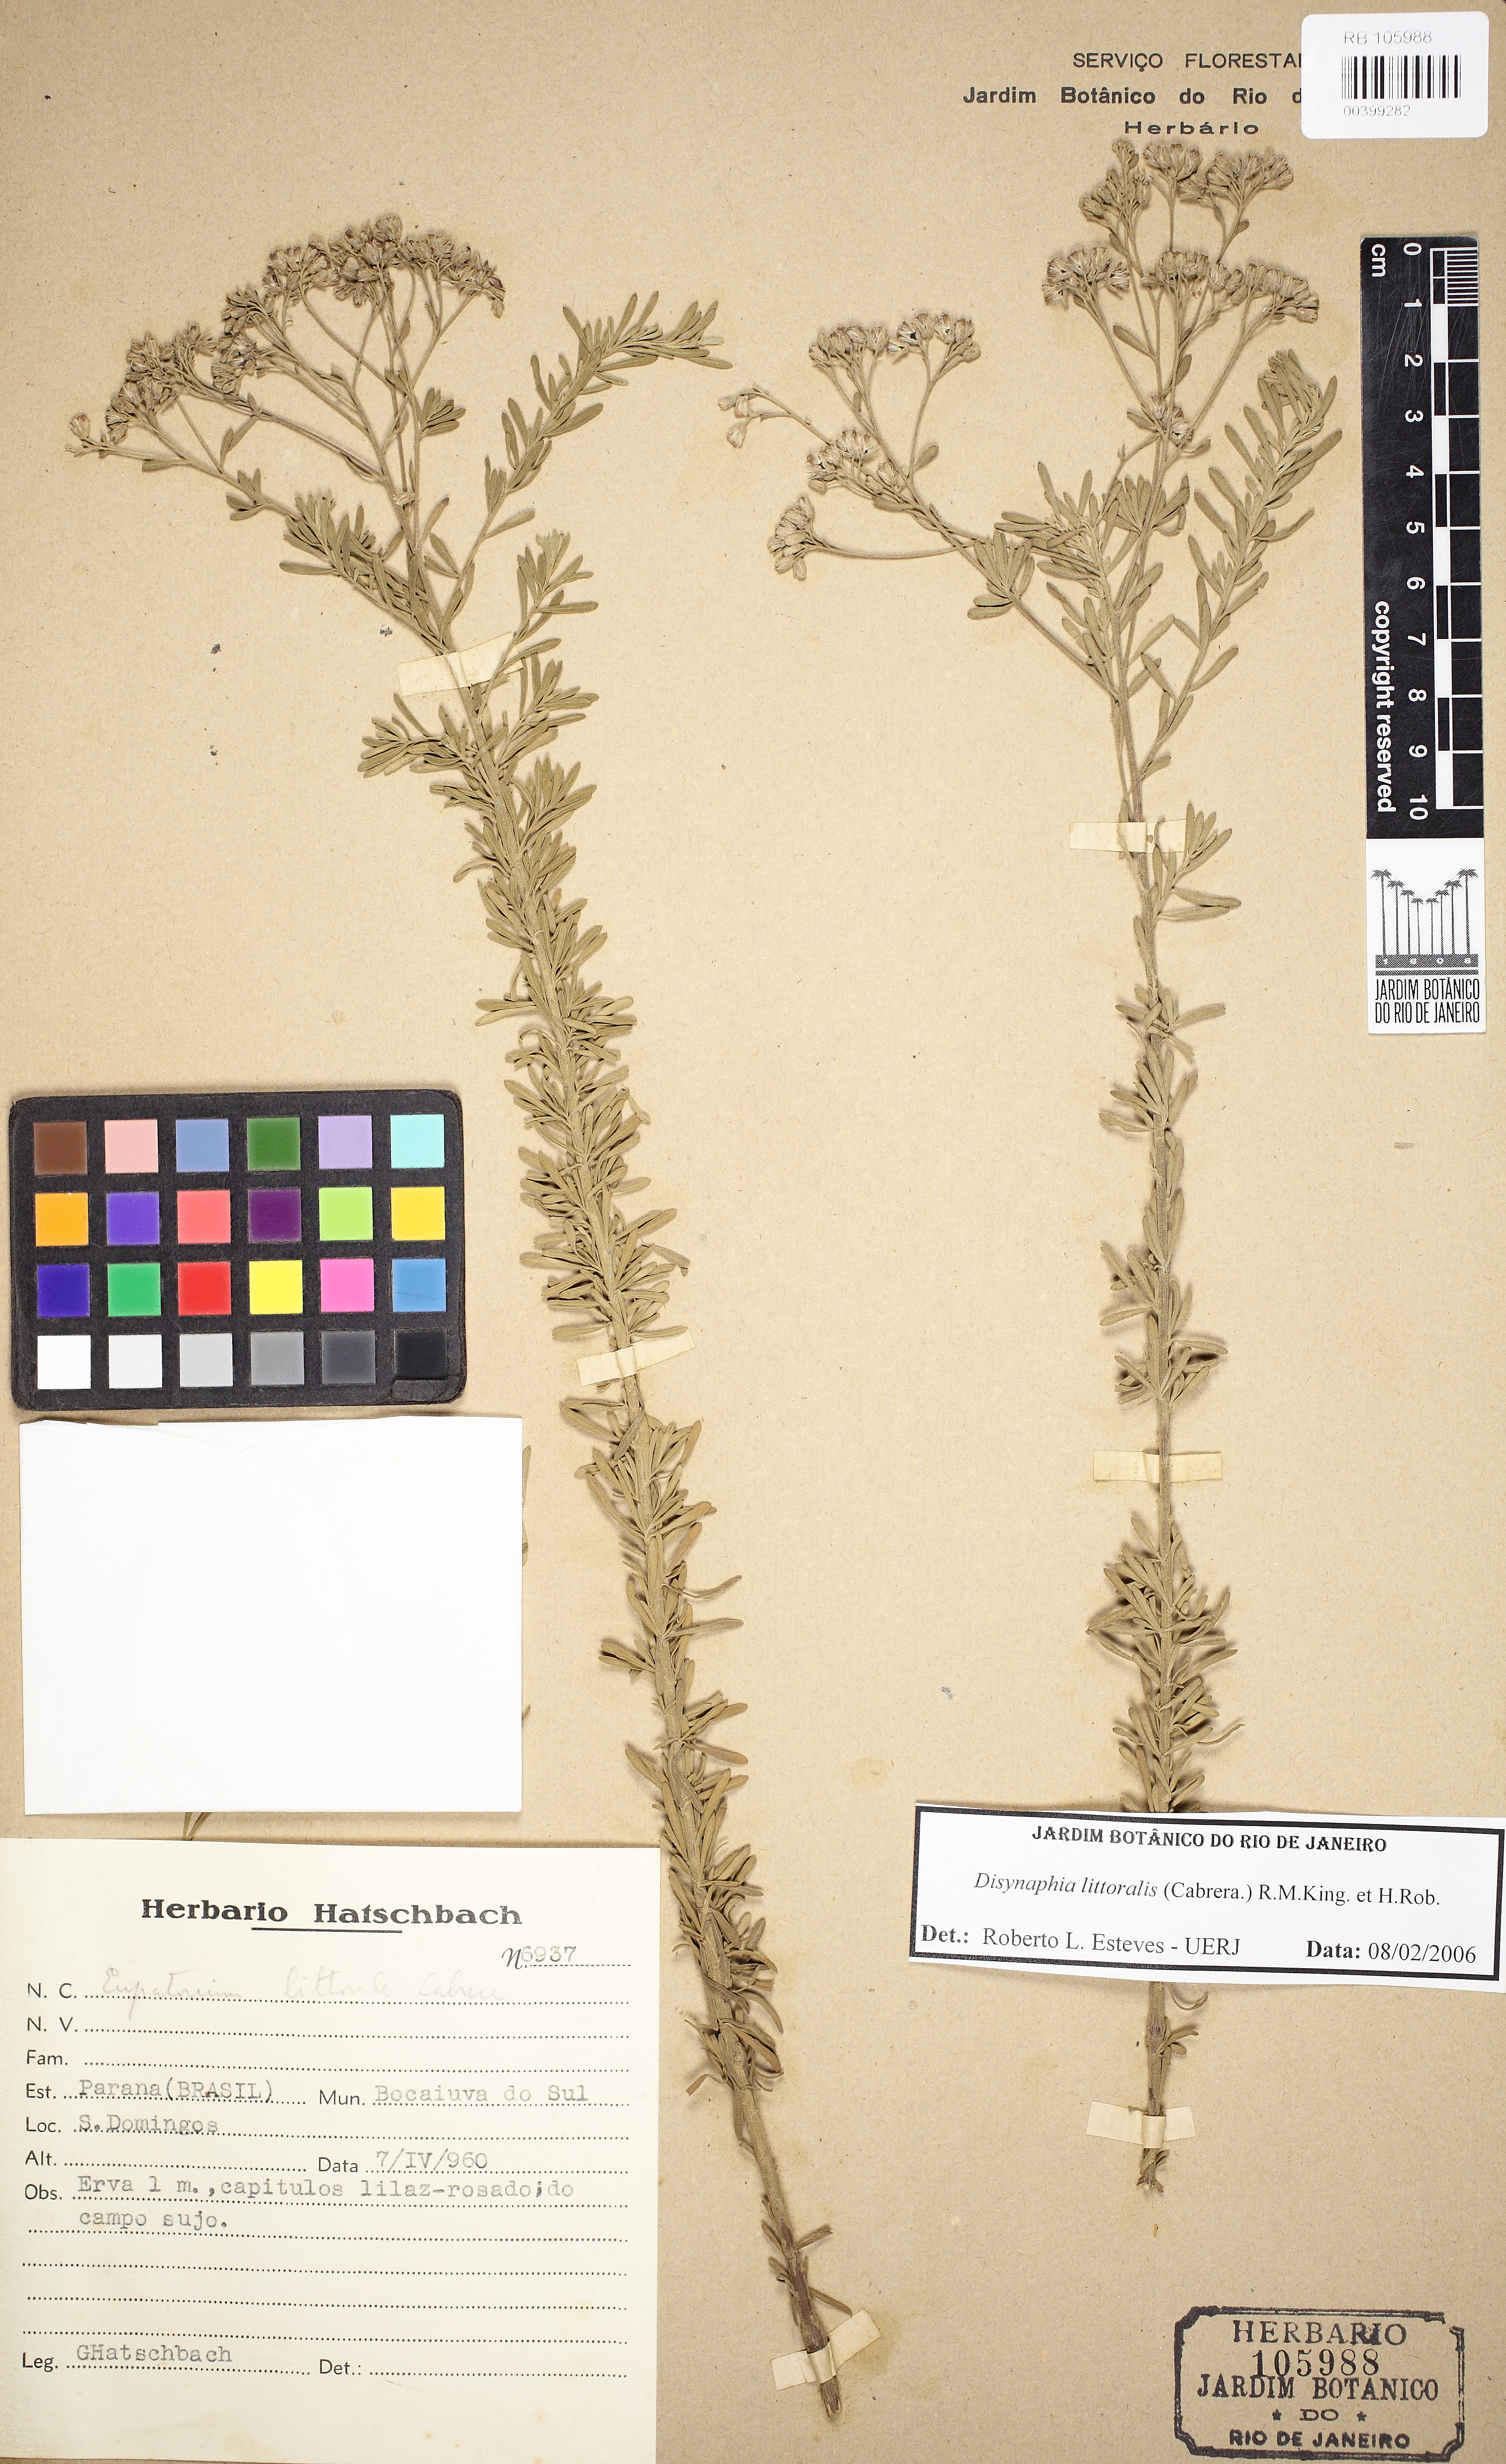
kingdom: Plantae
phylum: Tracheophyta
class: Magnoliopsida
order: Asterales
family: Asteraceae
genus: Disynaphia
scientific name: Disynaphia littoralis
